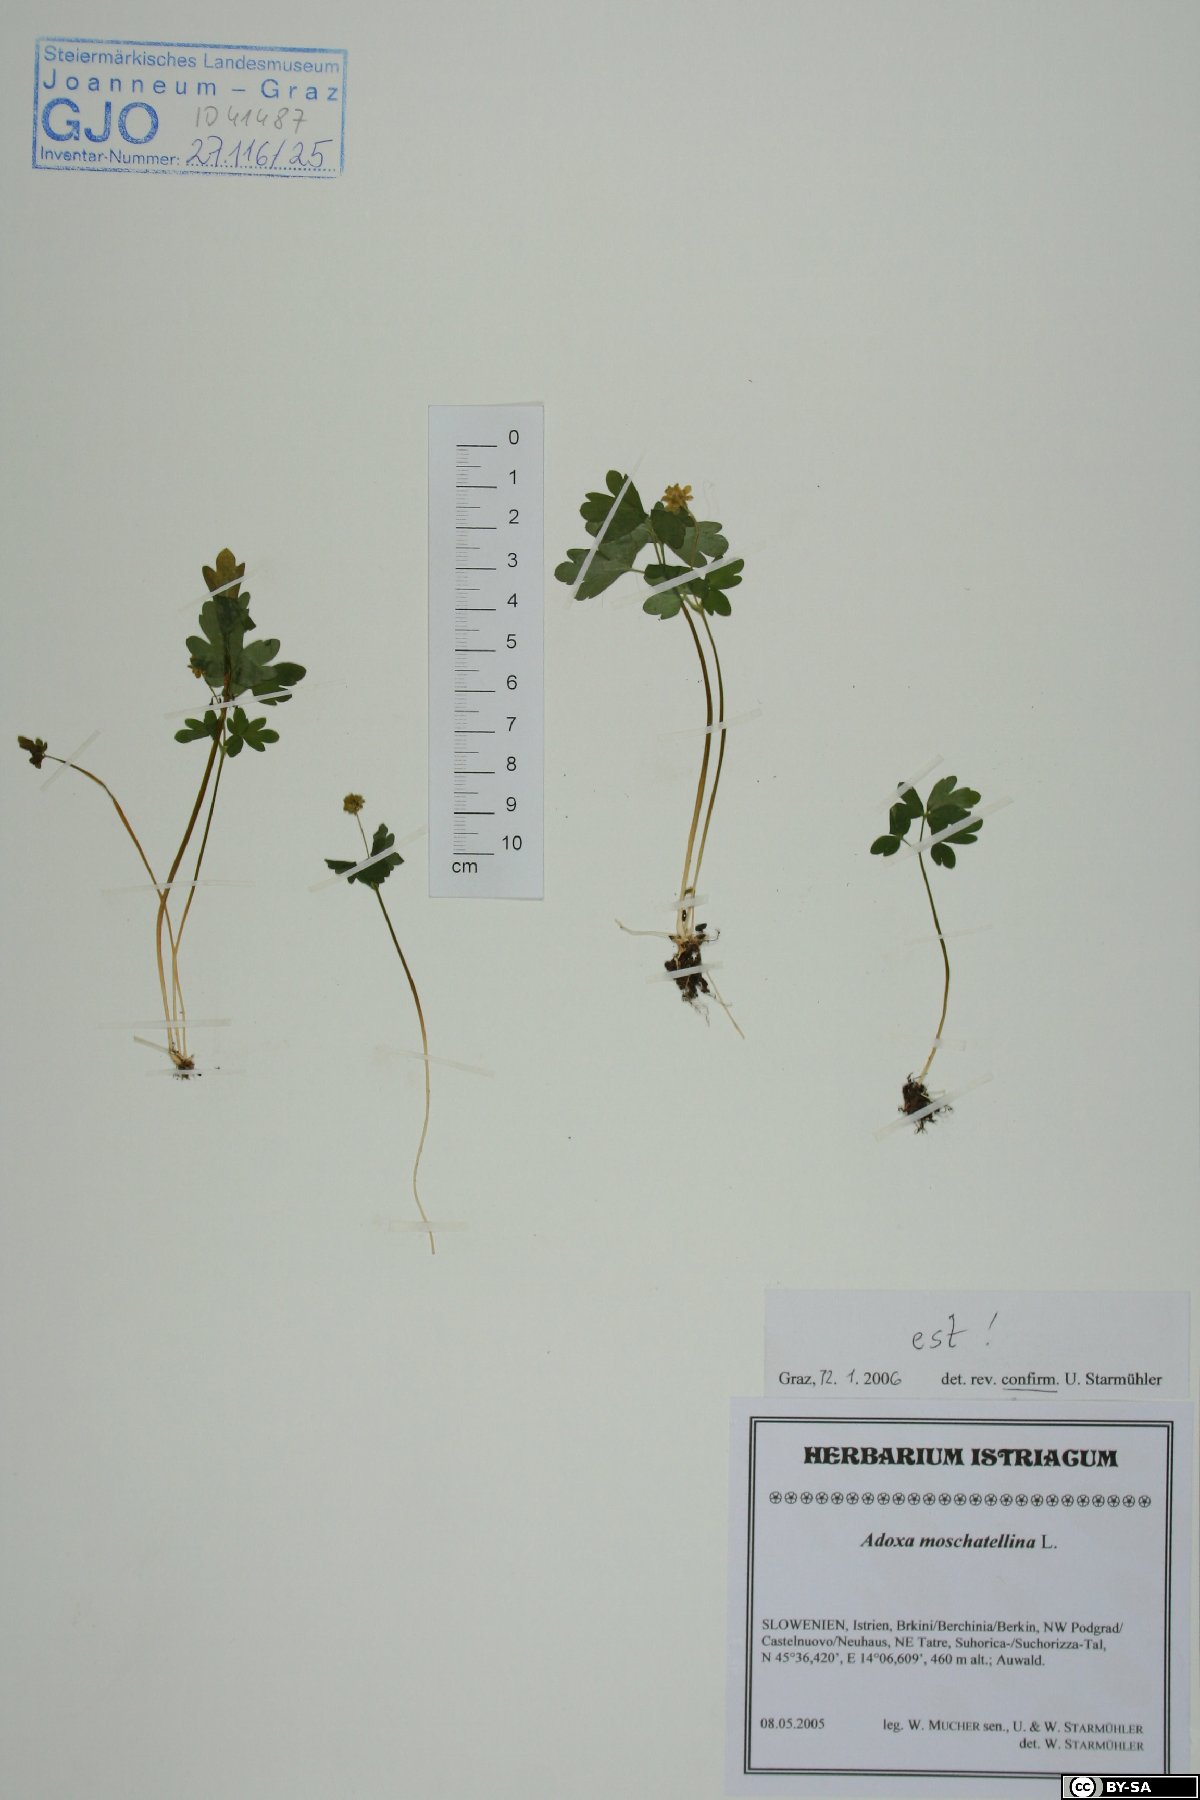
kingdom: Plantae
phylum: Tracheophyta
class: Magnoliopsida
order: Dipsacales
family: Viburnaceae
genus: Adoxa
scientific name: Adoxa moschatellina
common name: Moschatel
